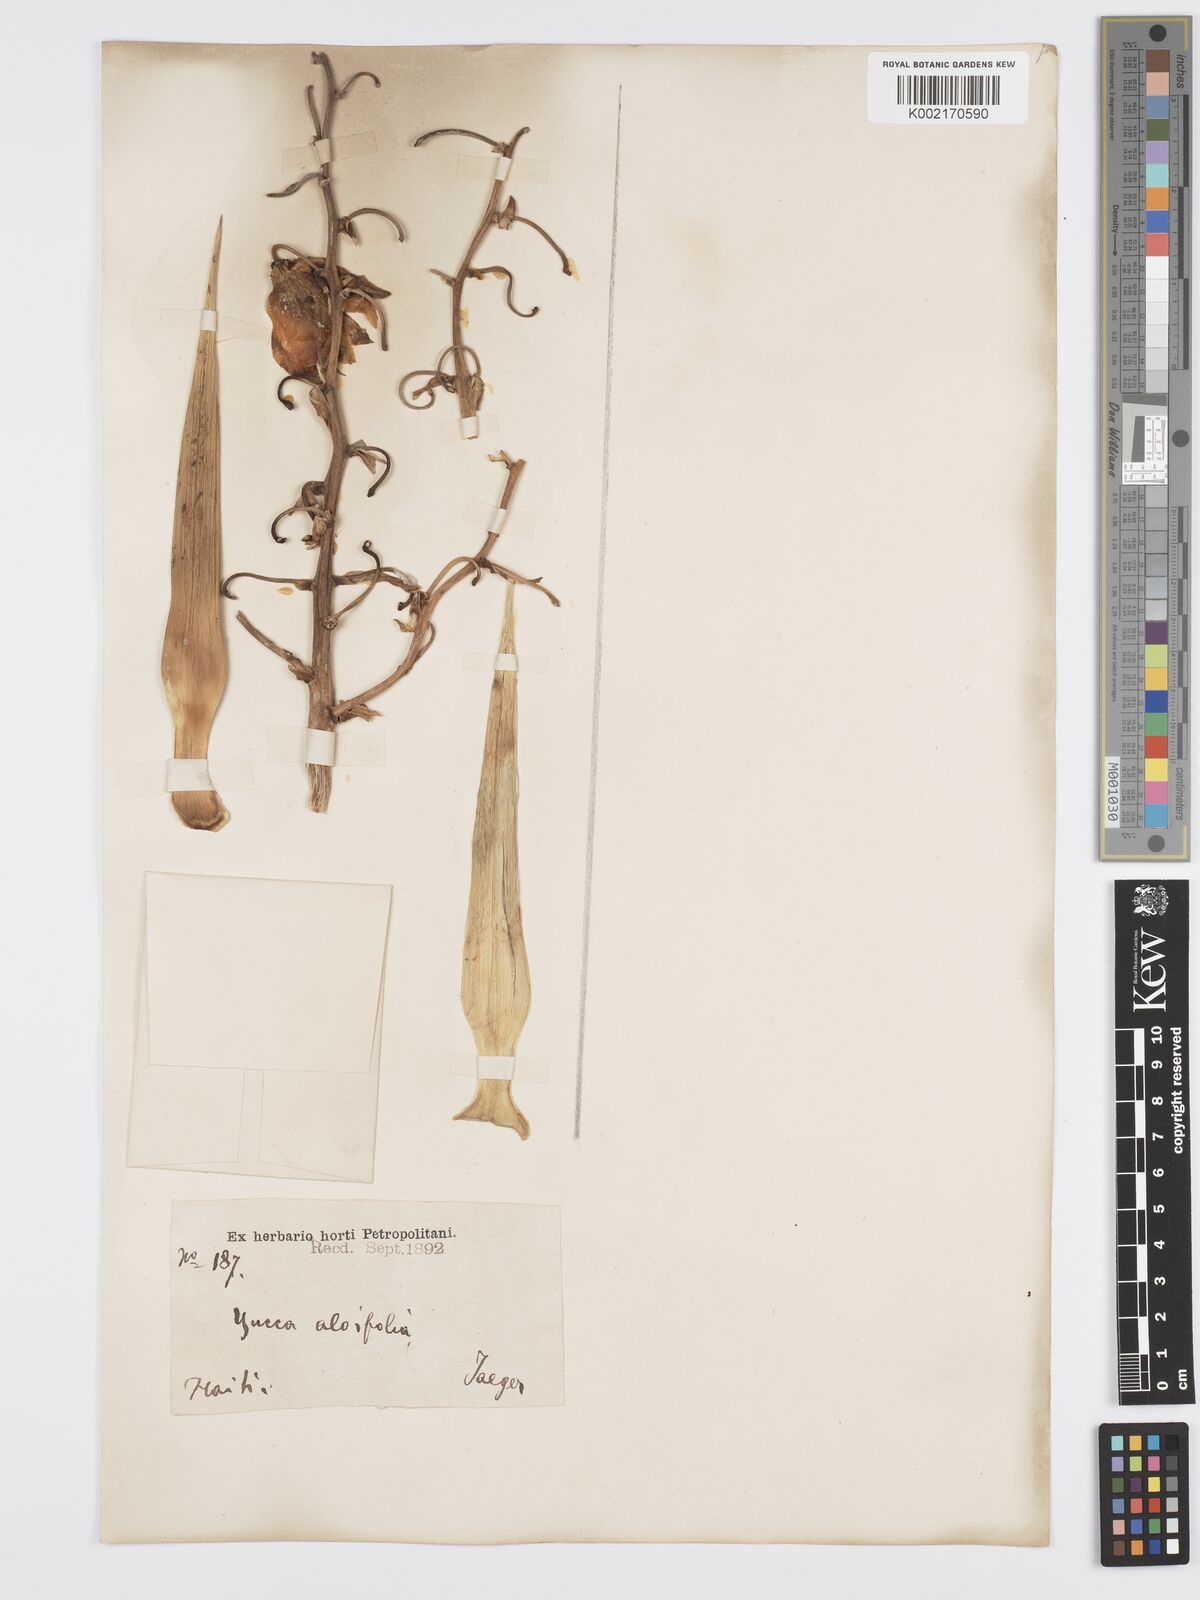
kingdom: Plantae
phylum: Tracheophyta
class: Liliopsida
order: Asparagales
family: Asparagaceae
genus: Yucca
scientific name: Yucca aloifolia
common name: Aloe yucca
